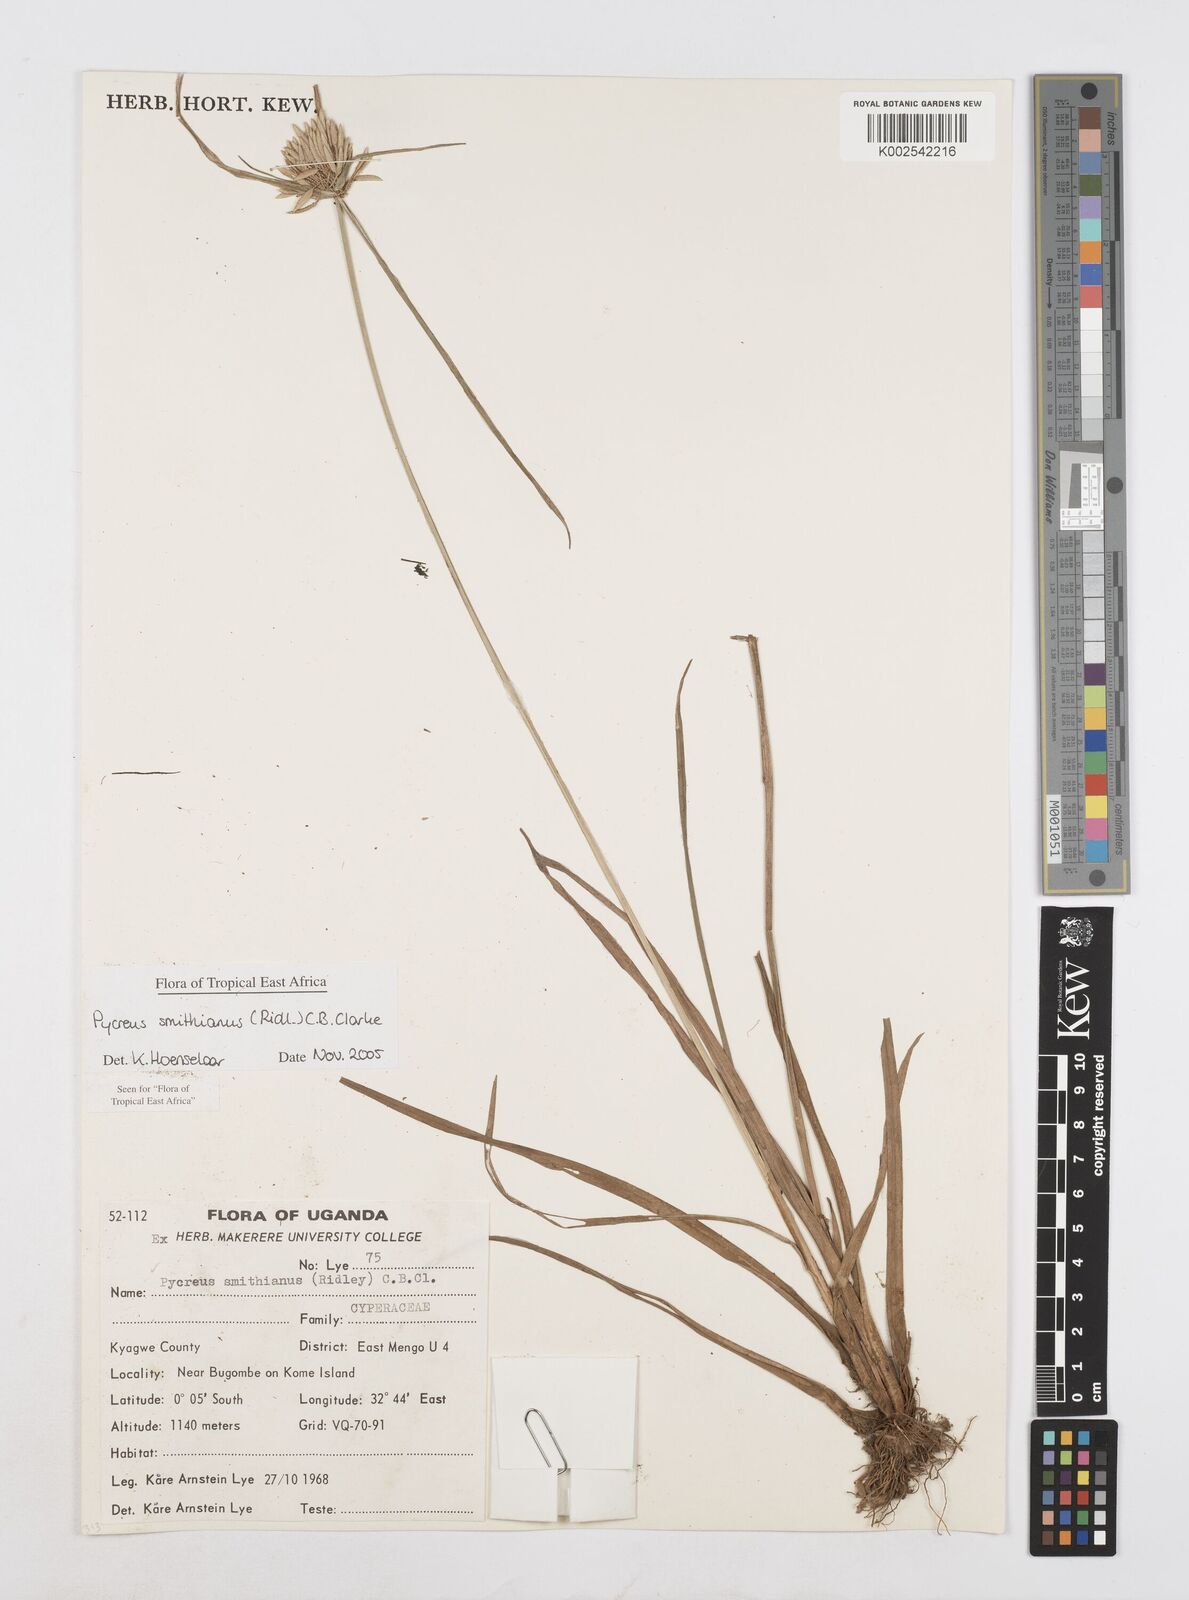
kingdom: Plantae
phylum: Tracheophyta
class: Liliopsida
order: Poales
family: Cyperaceae
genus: Cyperus
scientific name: Cyperus smithianus
